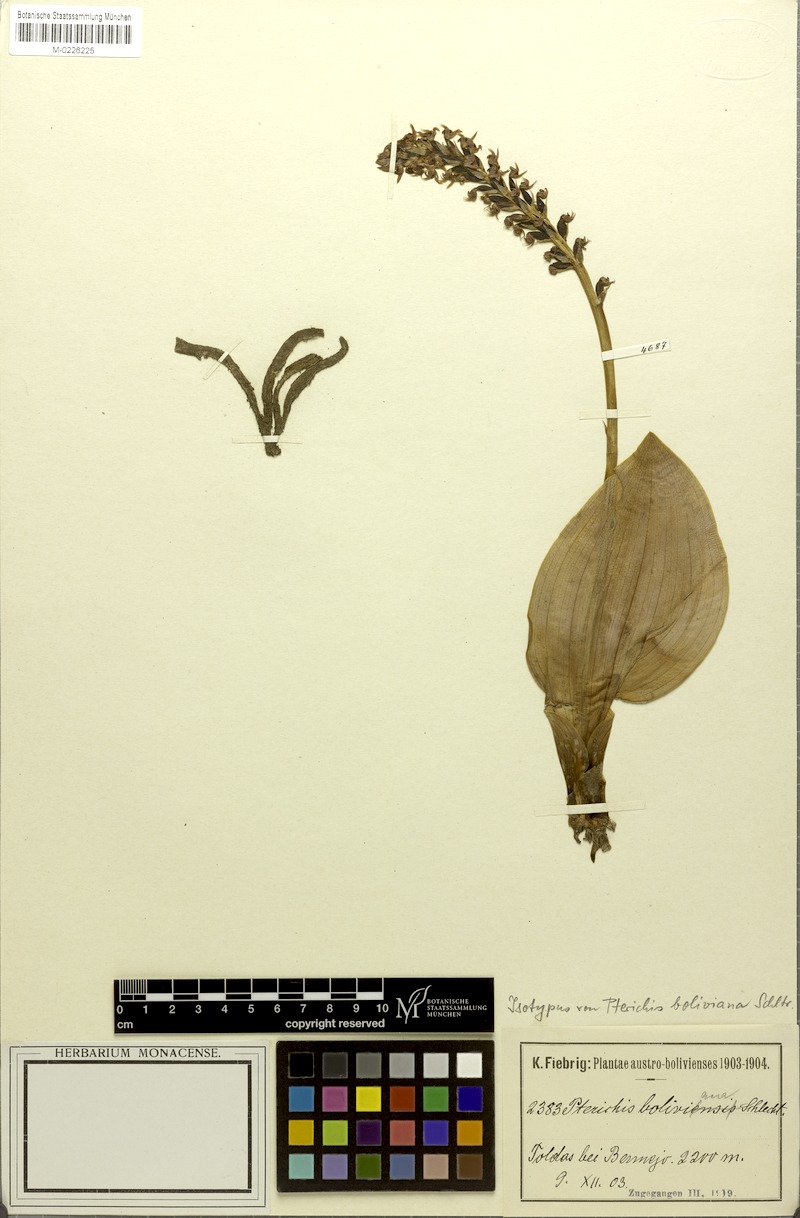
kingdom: Plantae
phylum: Tracheophyta
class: Liliopsida
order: Asparagales
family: Orchidaceae
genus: Pterichis
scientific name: Pterichis boliviana
